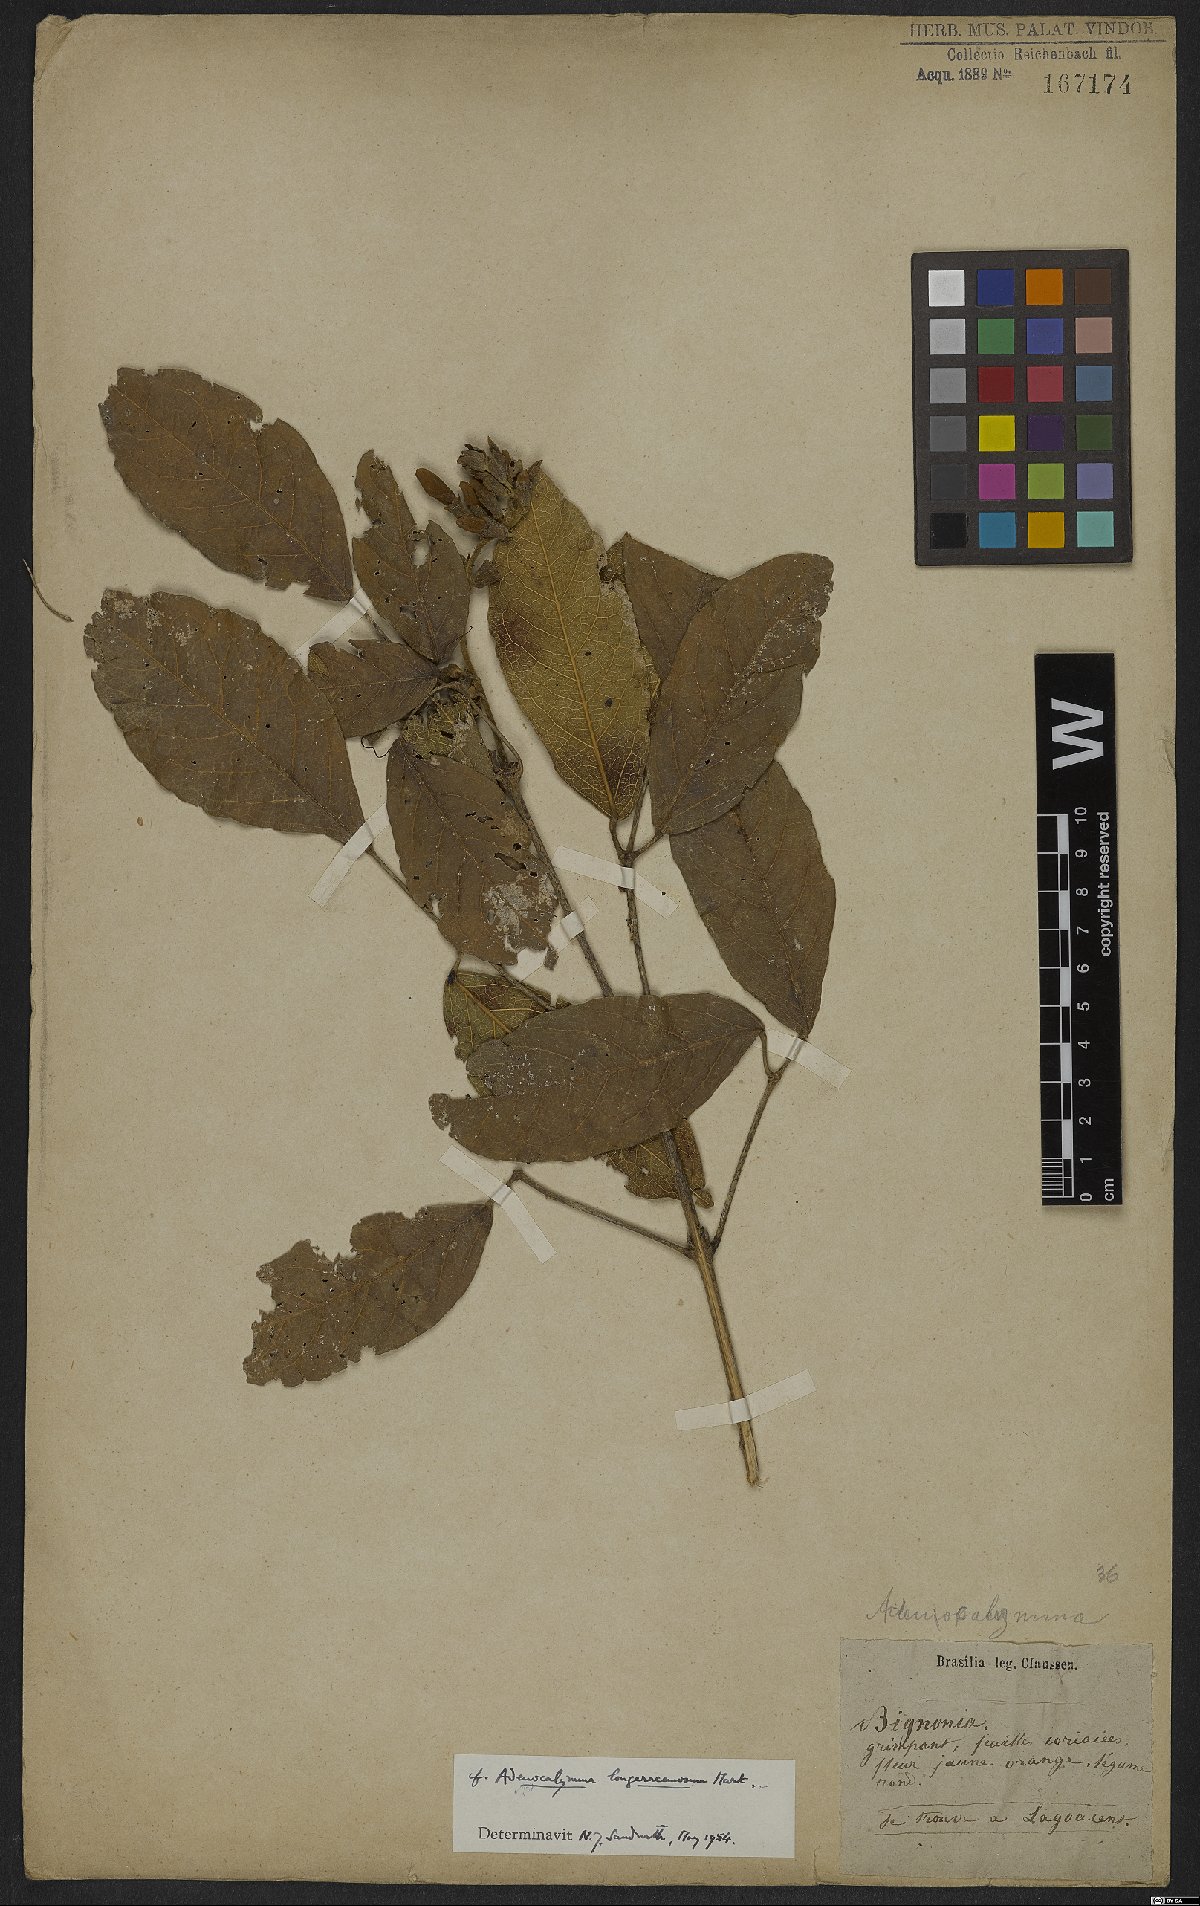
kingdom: Plantae
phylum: Tracheophyta
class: Magnoliopsida
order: Lamiales
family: Bignoniaceae
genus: Adenocalymma
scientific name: Adenocalymma trifoliatum
